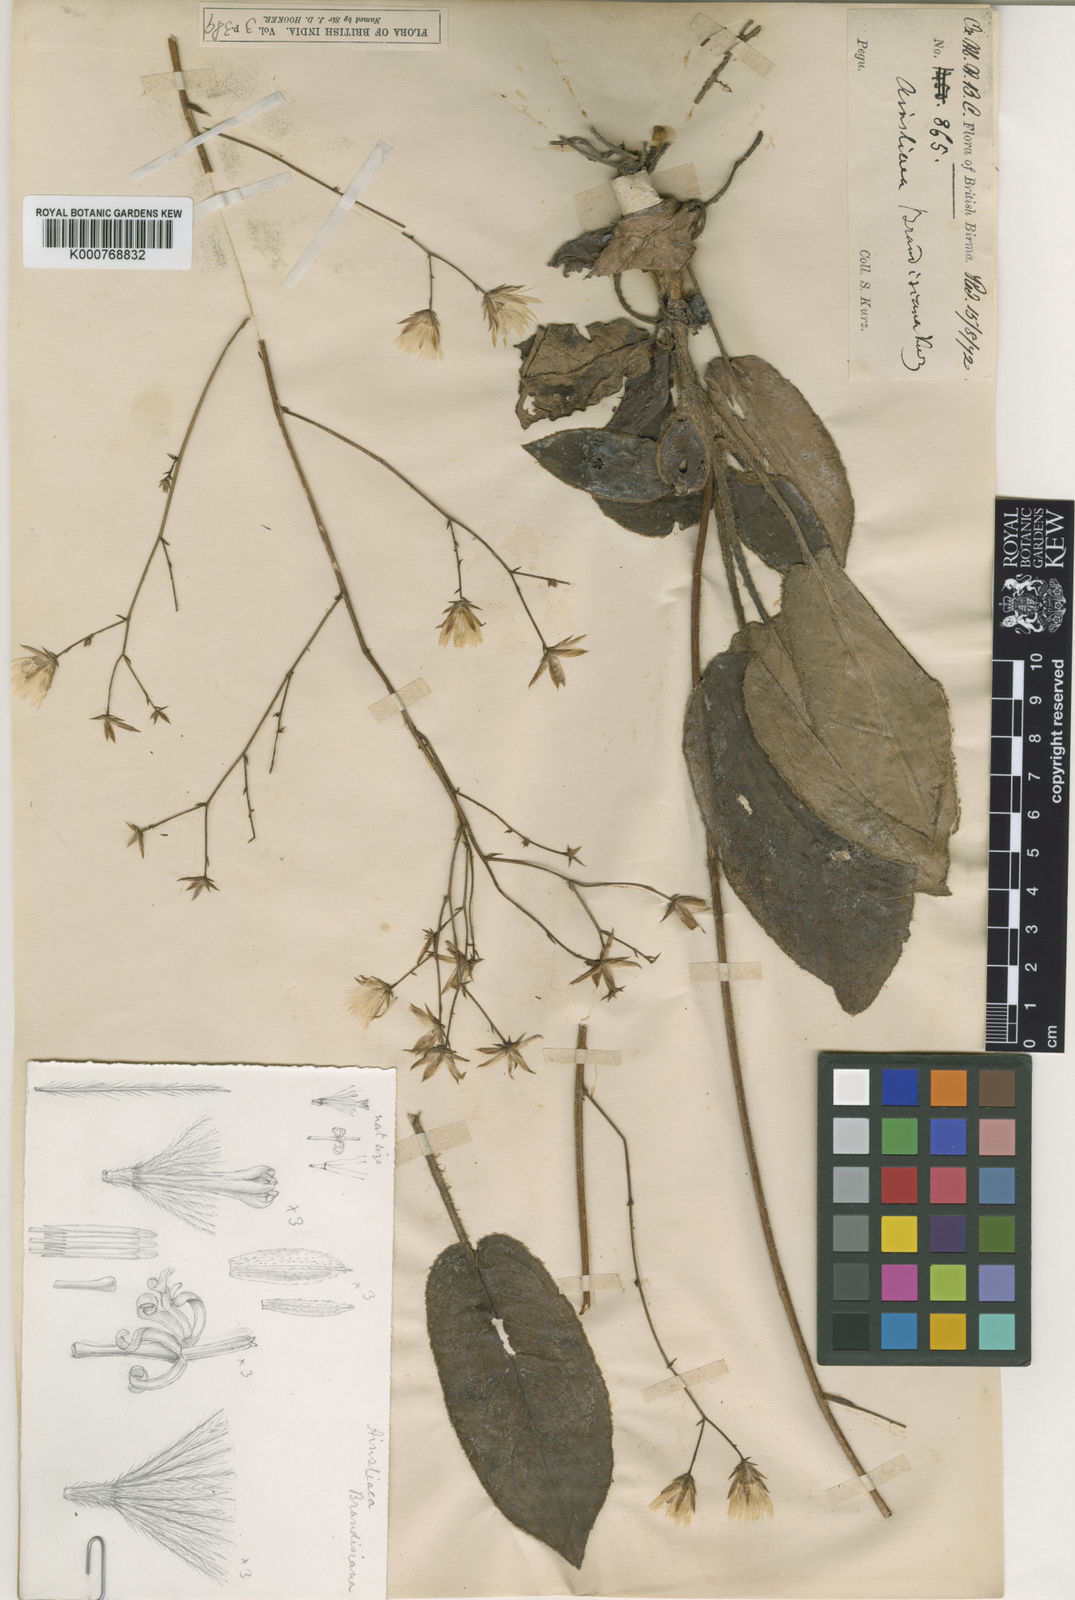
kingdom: Plantae
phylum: Tracheophyta
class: Magnoliopsida
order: Asterales
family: Asteraceae
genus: Ainsliaea
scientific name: Ainsliaea brandisiana
